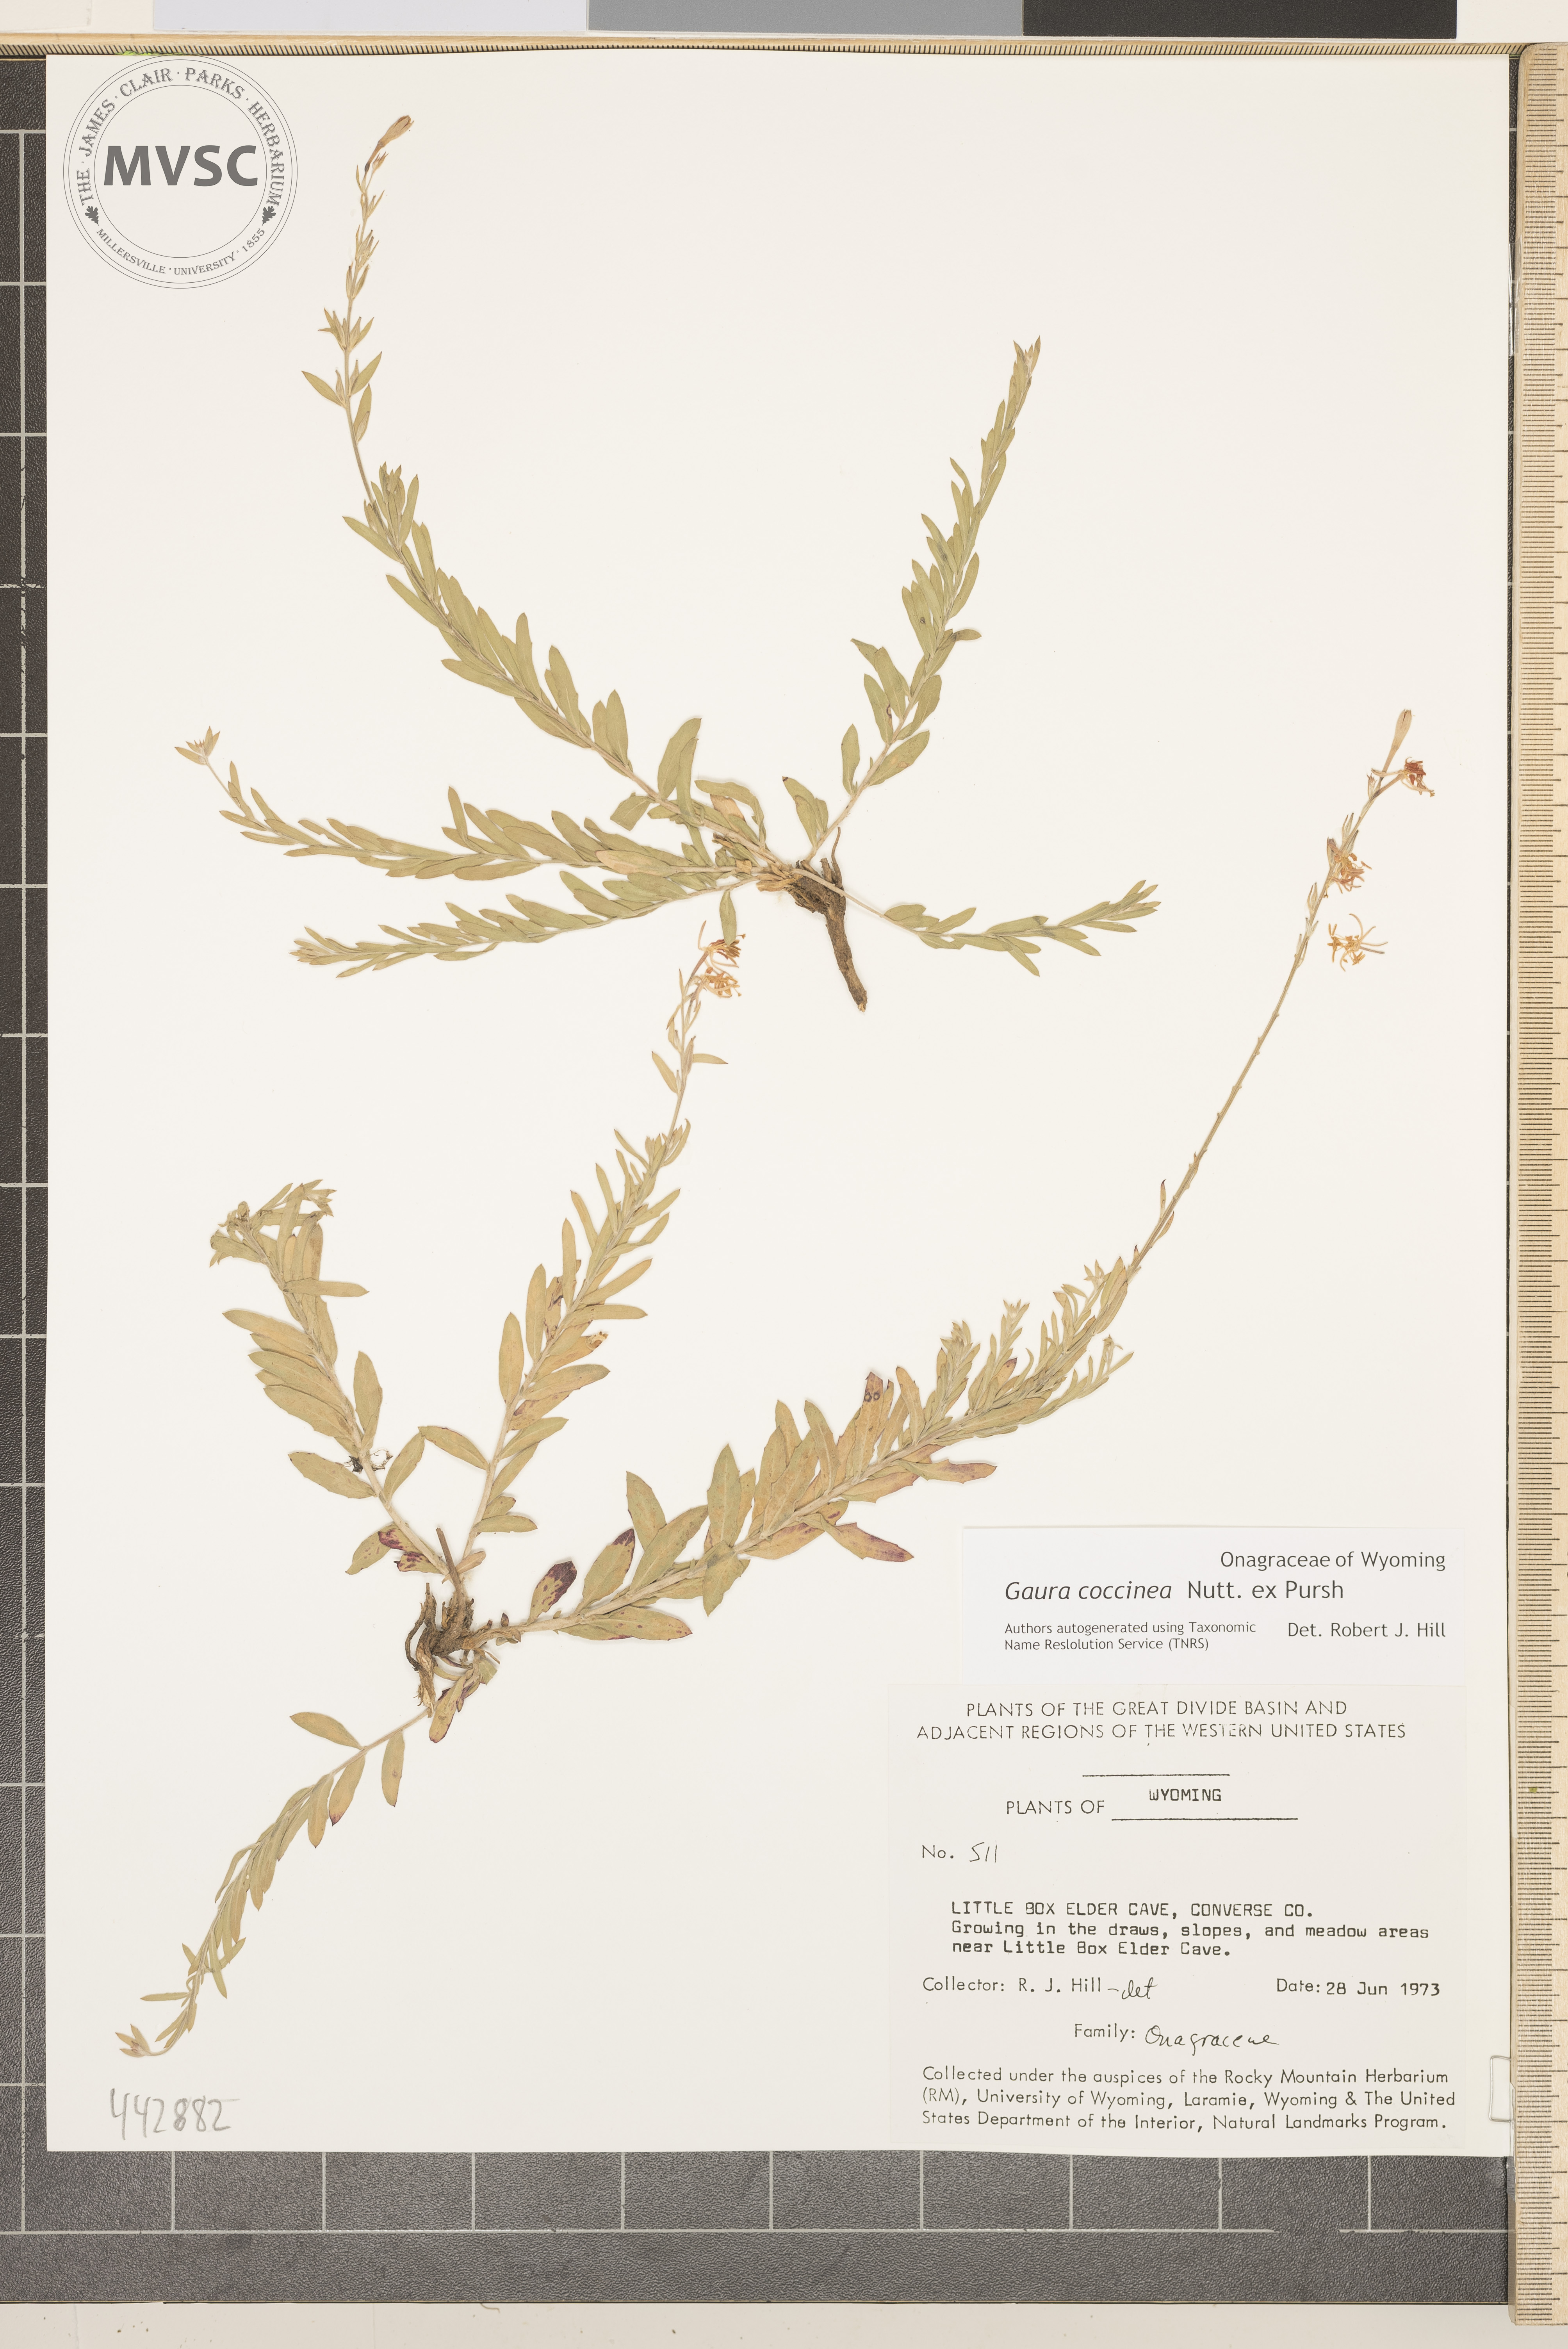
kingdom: Plantae
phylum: Tracheophyta
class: Magnoliopsida
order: Myrtales
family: Onagraceae
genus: Oenothera
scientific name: Oenothera suffrutescens
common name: Scarlet beeblossom
